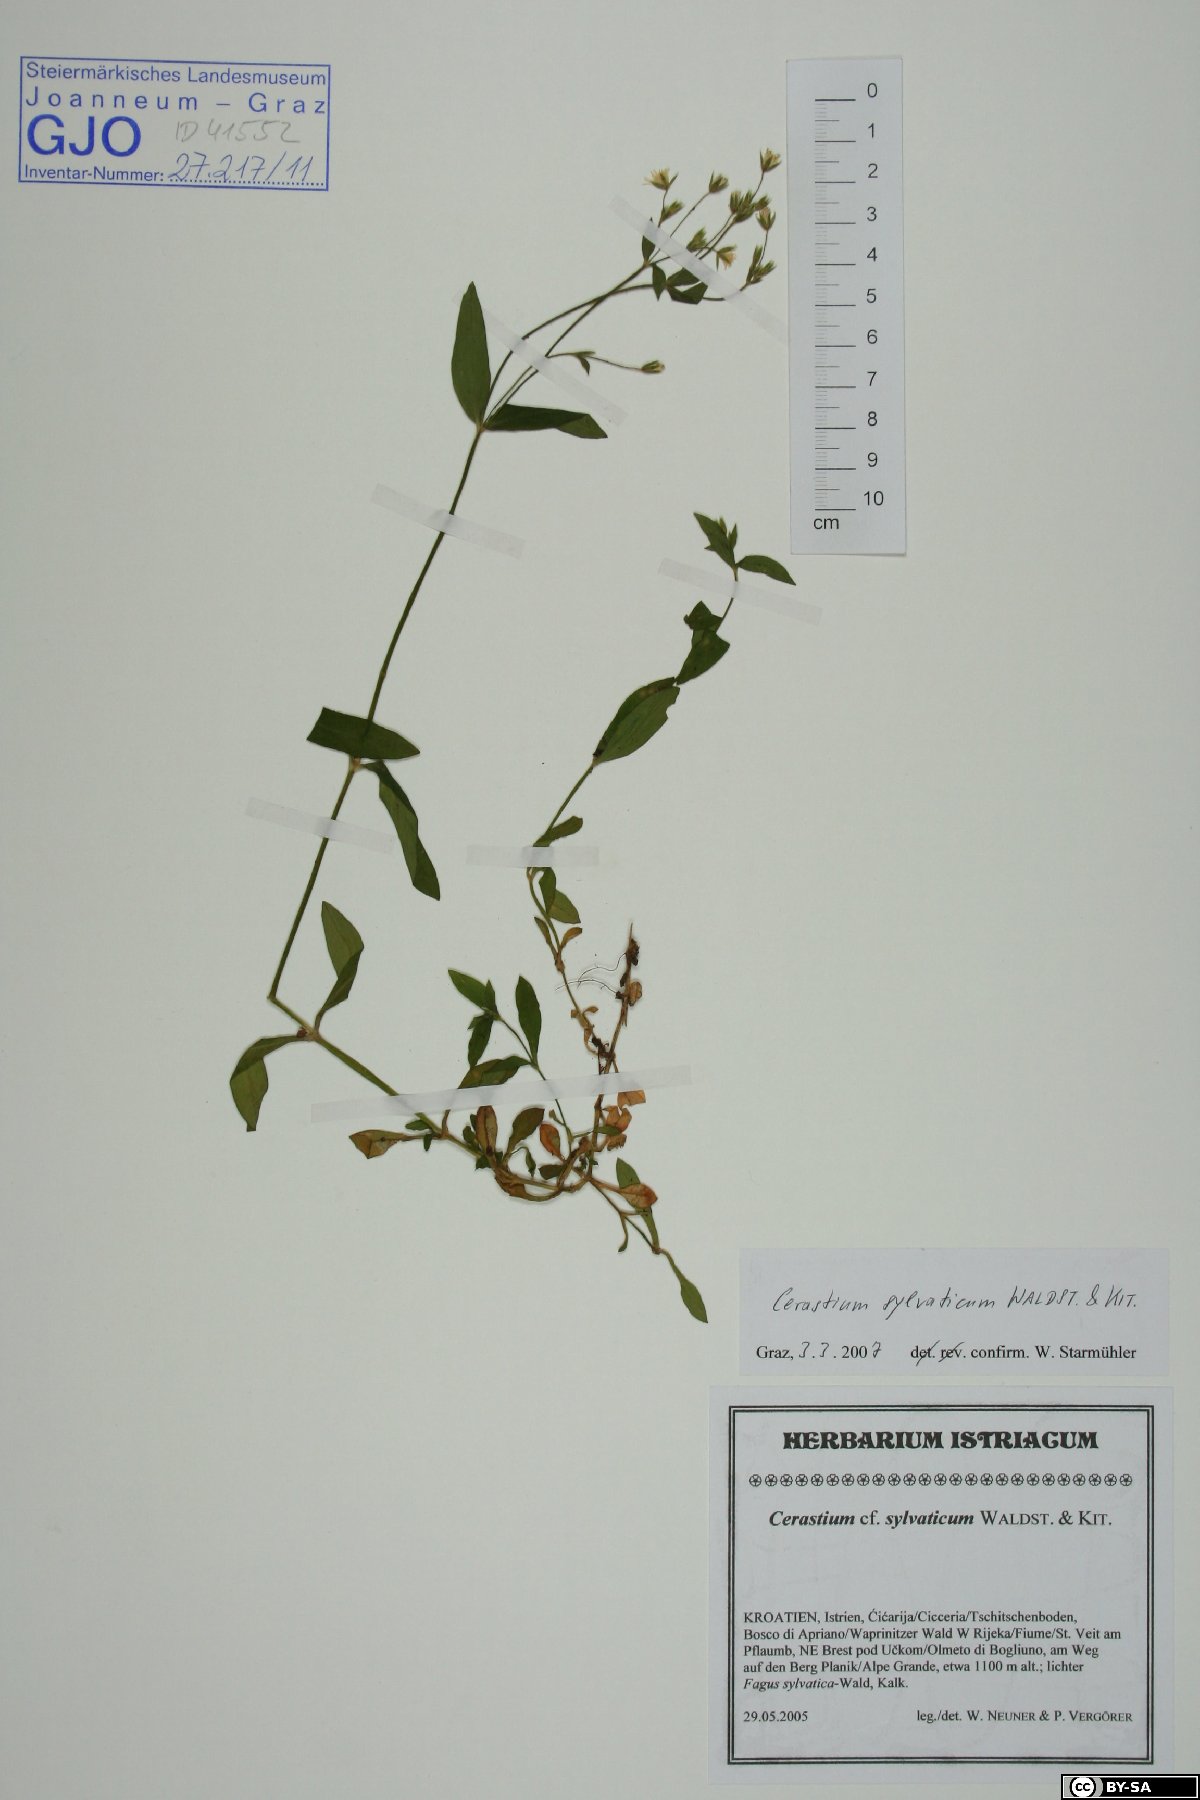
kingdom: Plantae
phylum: Tracheophyta
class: Magnoliopsida
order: Caryophyllales
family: Caryophyllaceae
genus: Cerastium
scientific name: Cerastium sylvaticum
